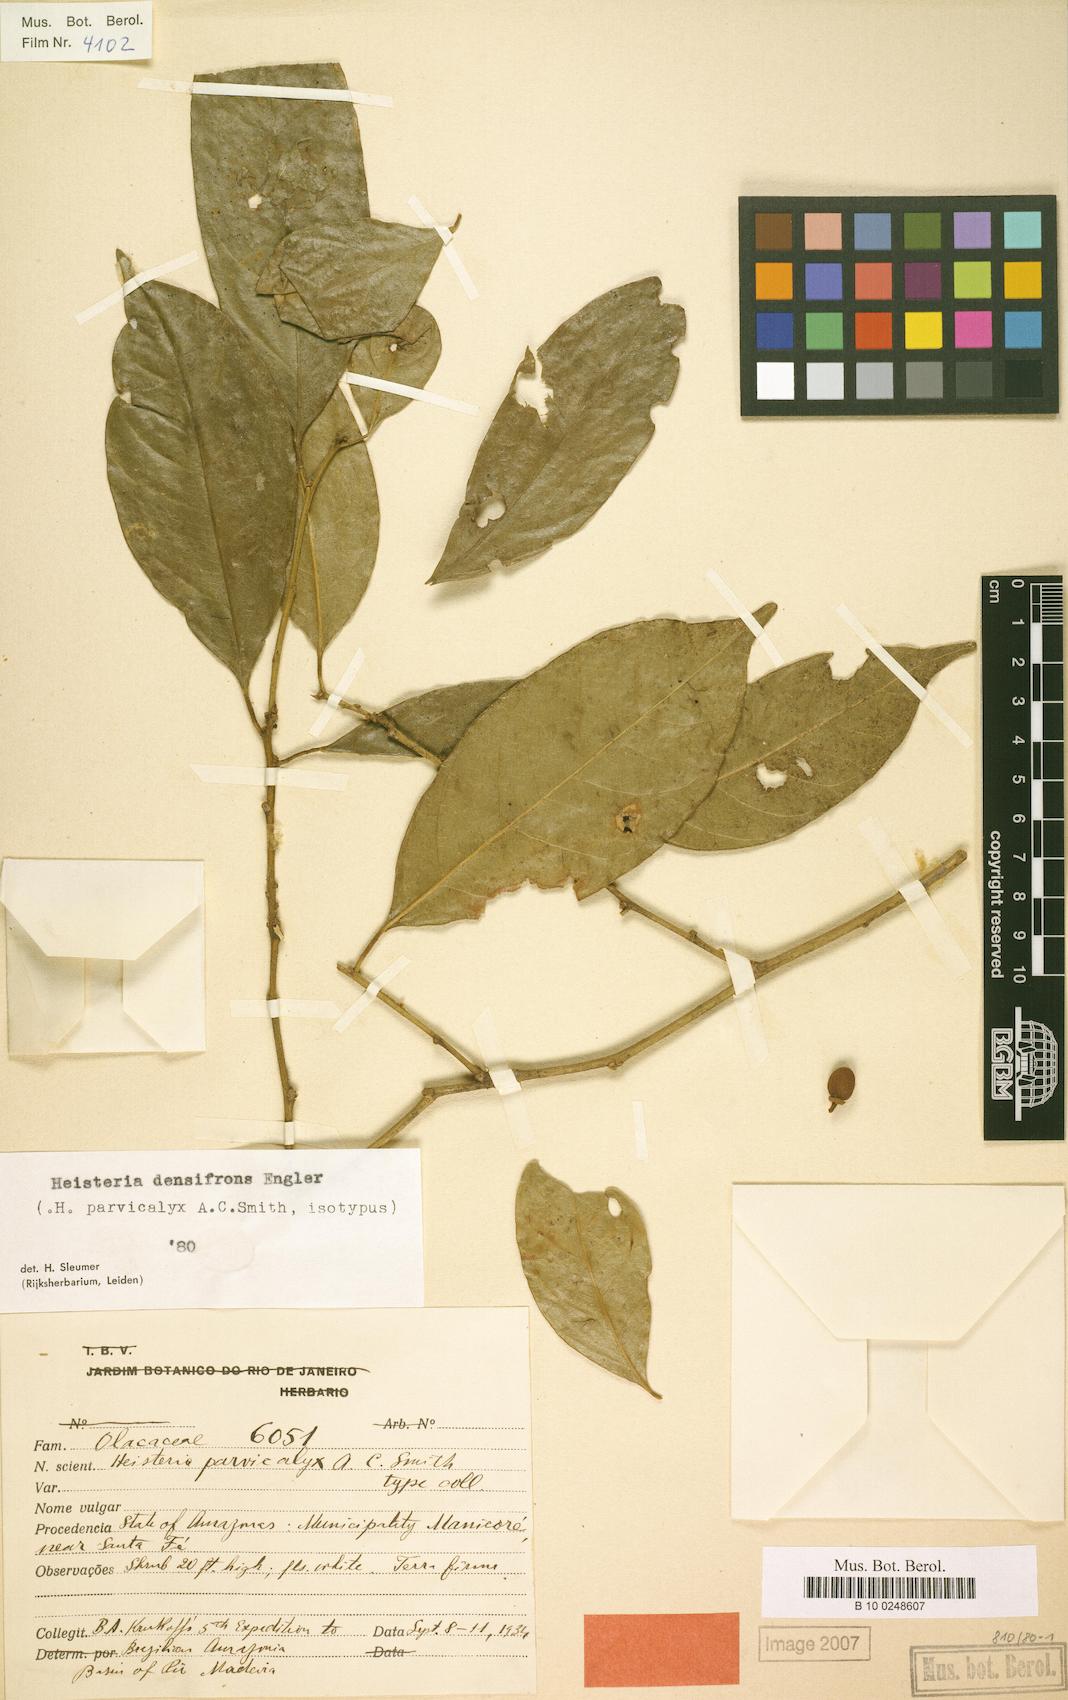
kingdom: Plantae
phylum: Tracheophyta
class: Magnoliopsida
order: Santalales
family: Erythropalaceae
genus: Heisteria
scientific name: Heisteria densifrons
